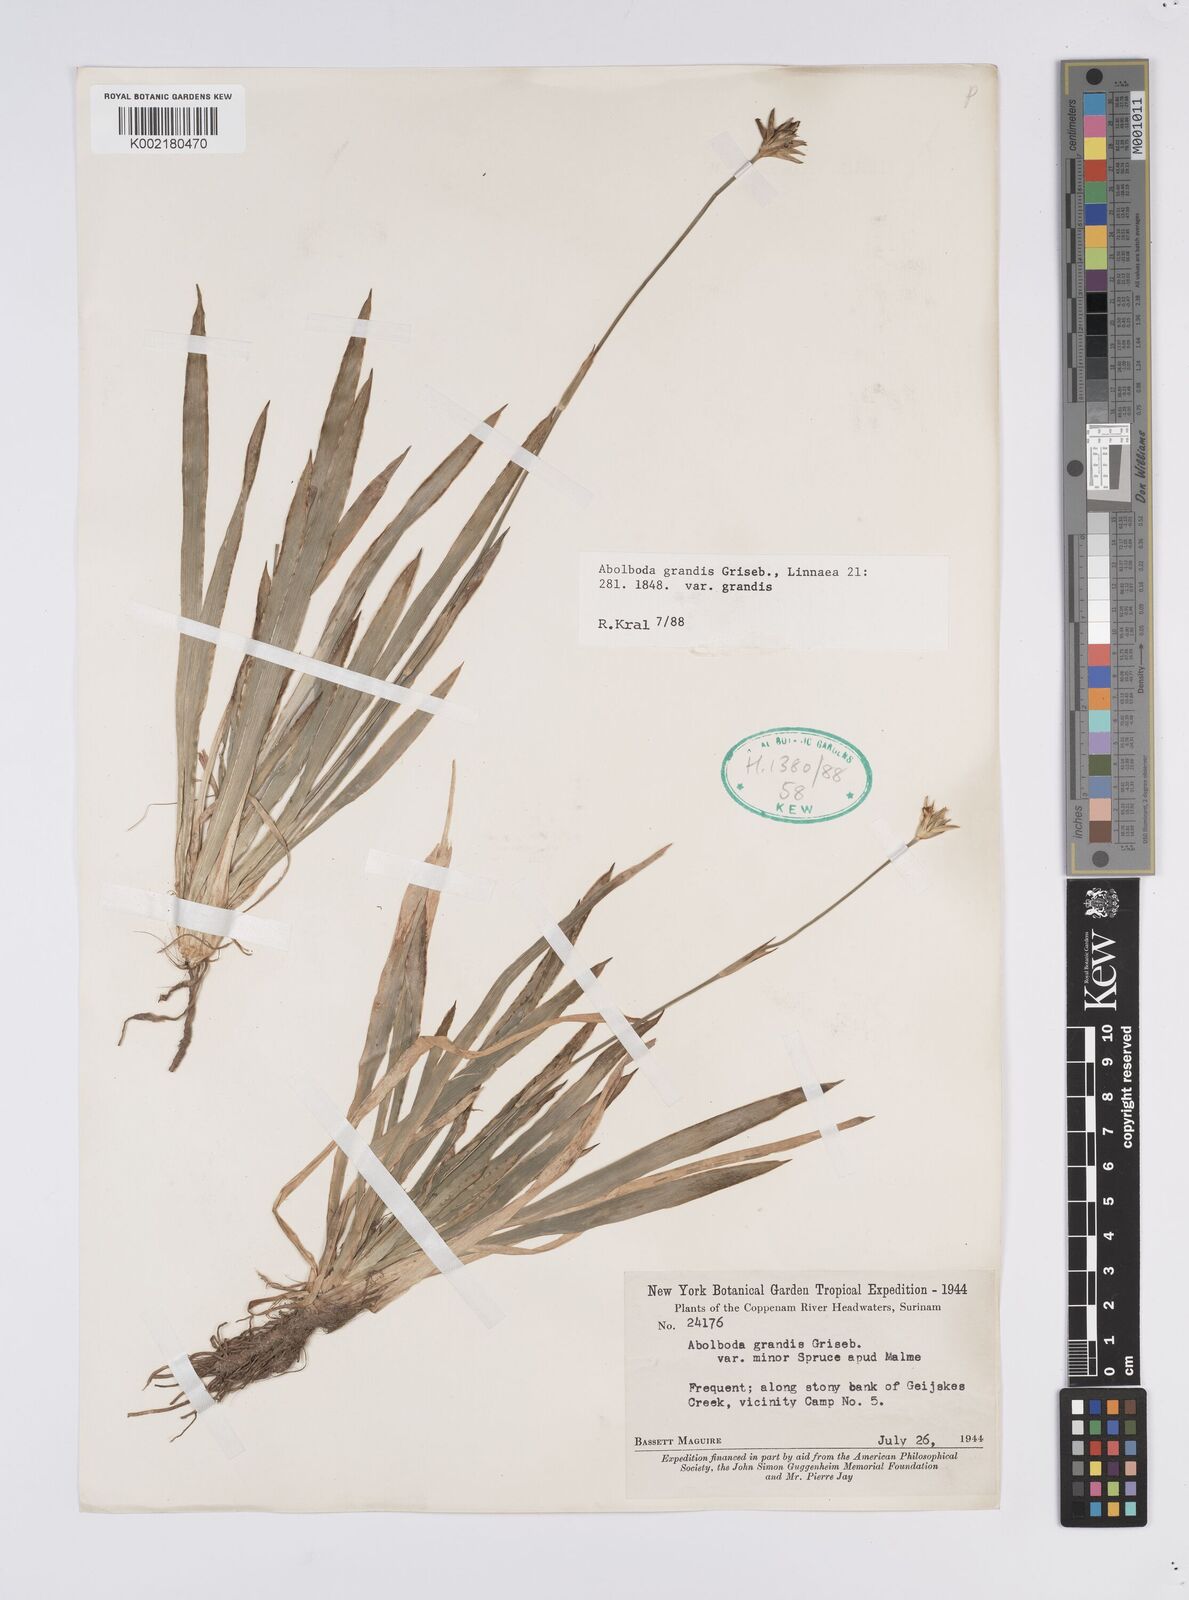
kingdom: Plantae
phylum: Tracheophyta
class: Liliopsida
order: Poales
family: Xyridaceae
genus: Abolboda
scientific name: Abolboda grandis
